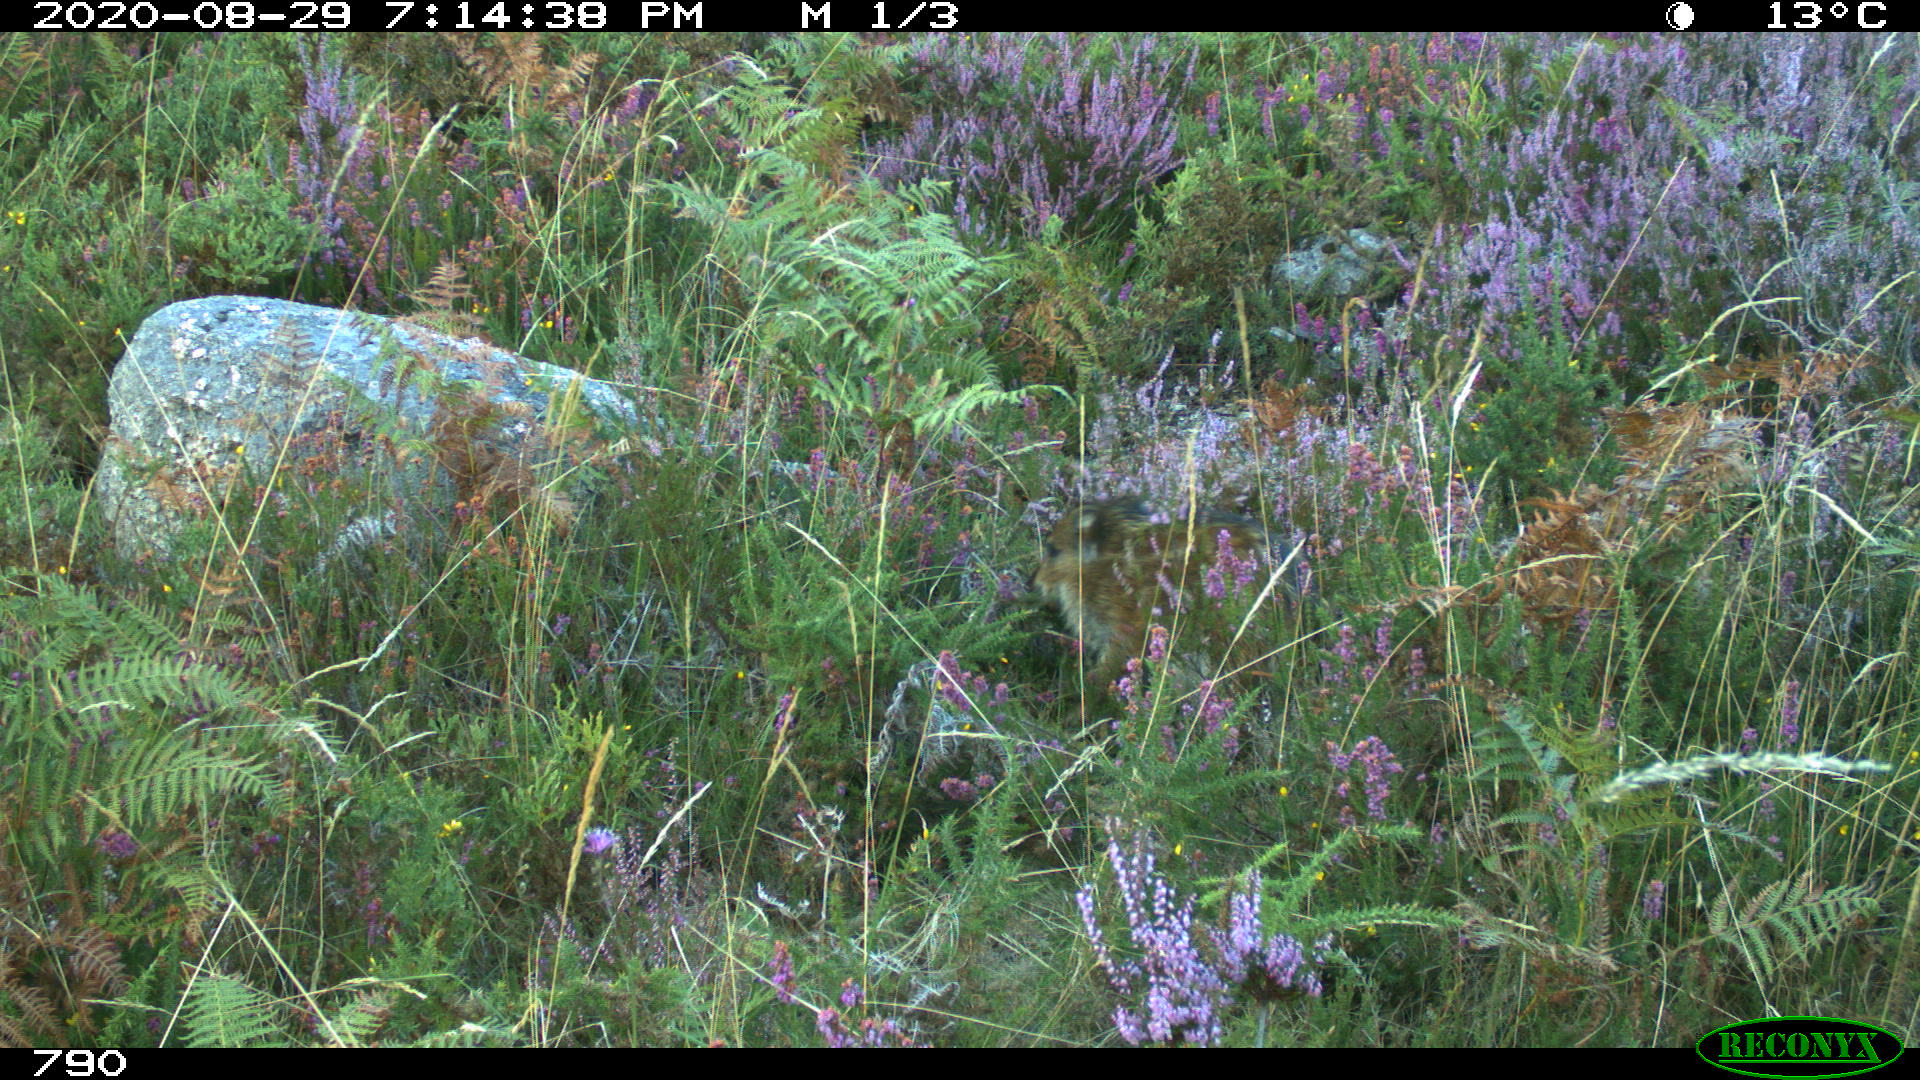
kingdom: Animalia
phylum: Chordata
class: Mammalia
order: Artiodactyla
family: Suidae
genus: Sus
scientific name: Sus scrofa
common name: Wild boar
